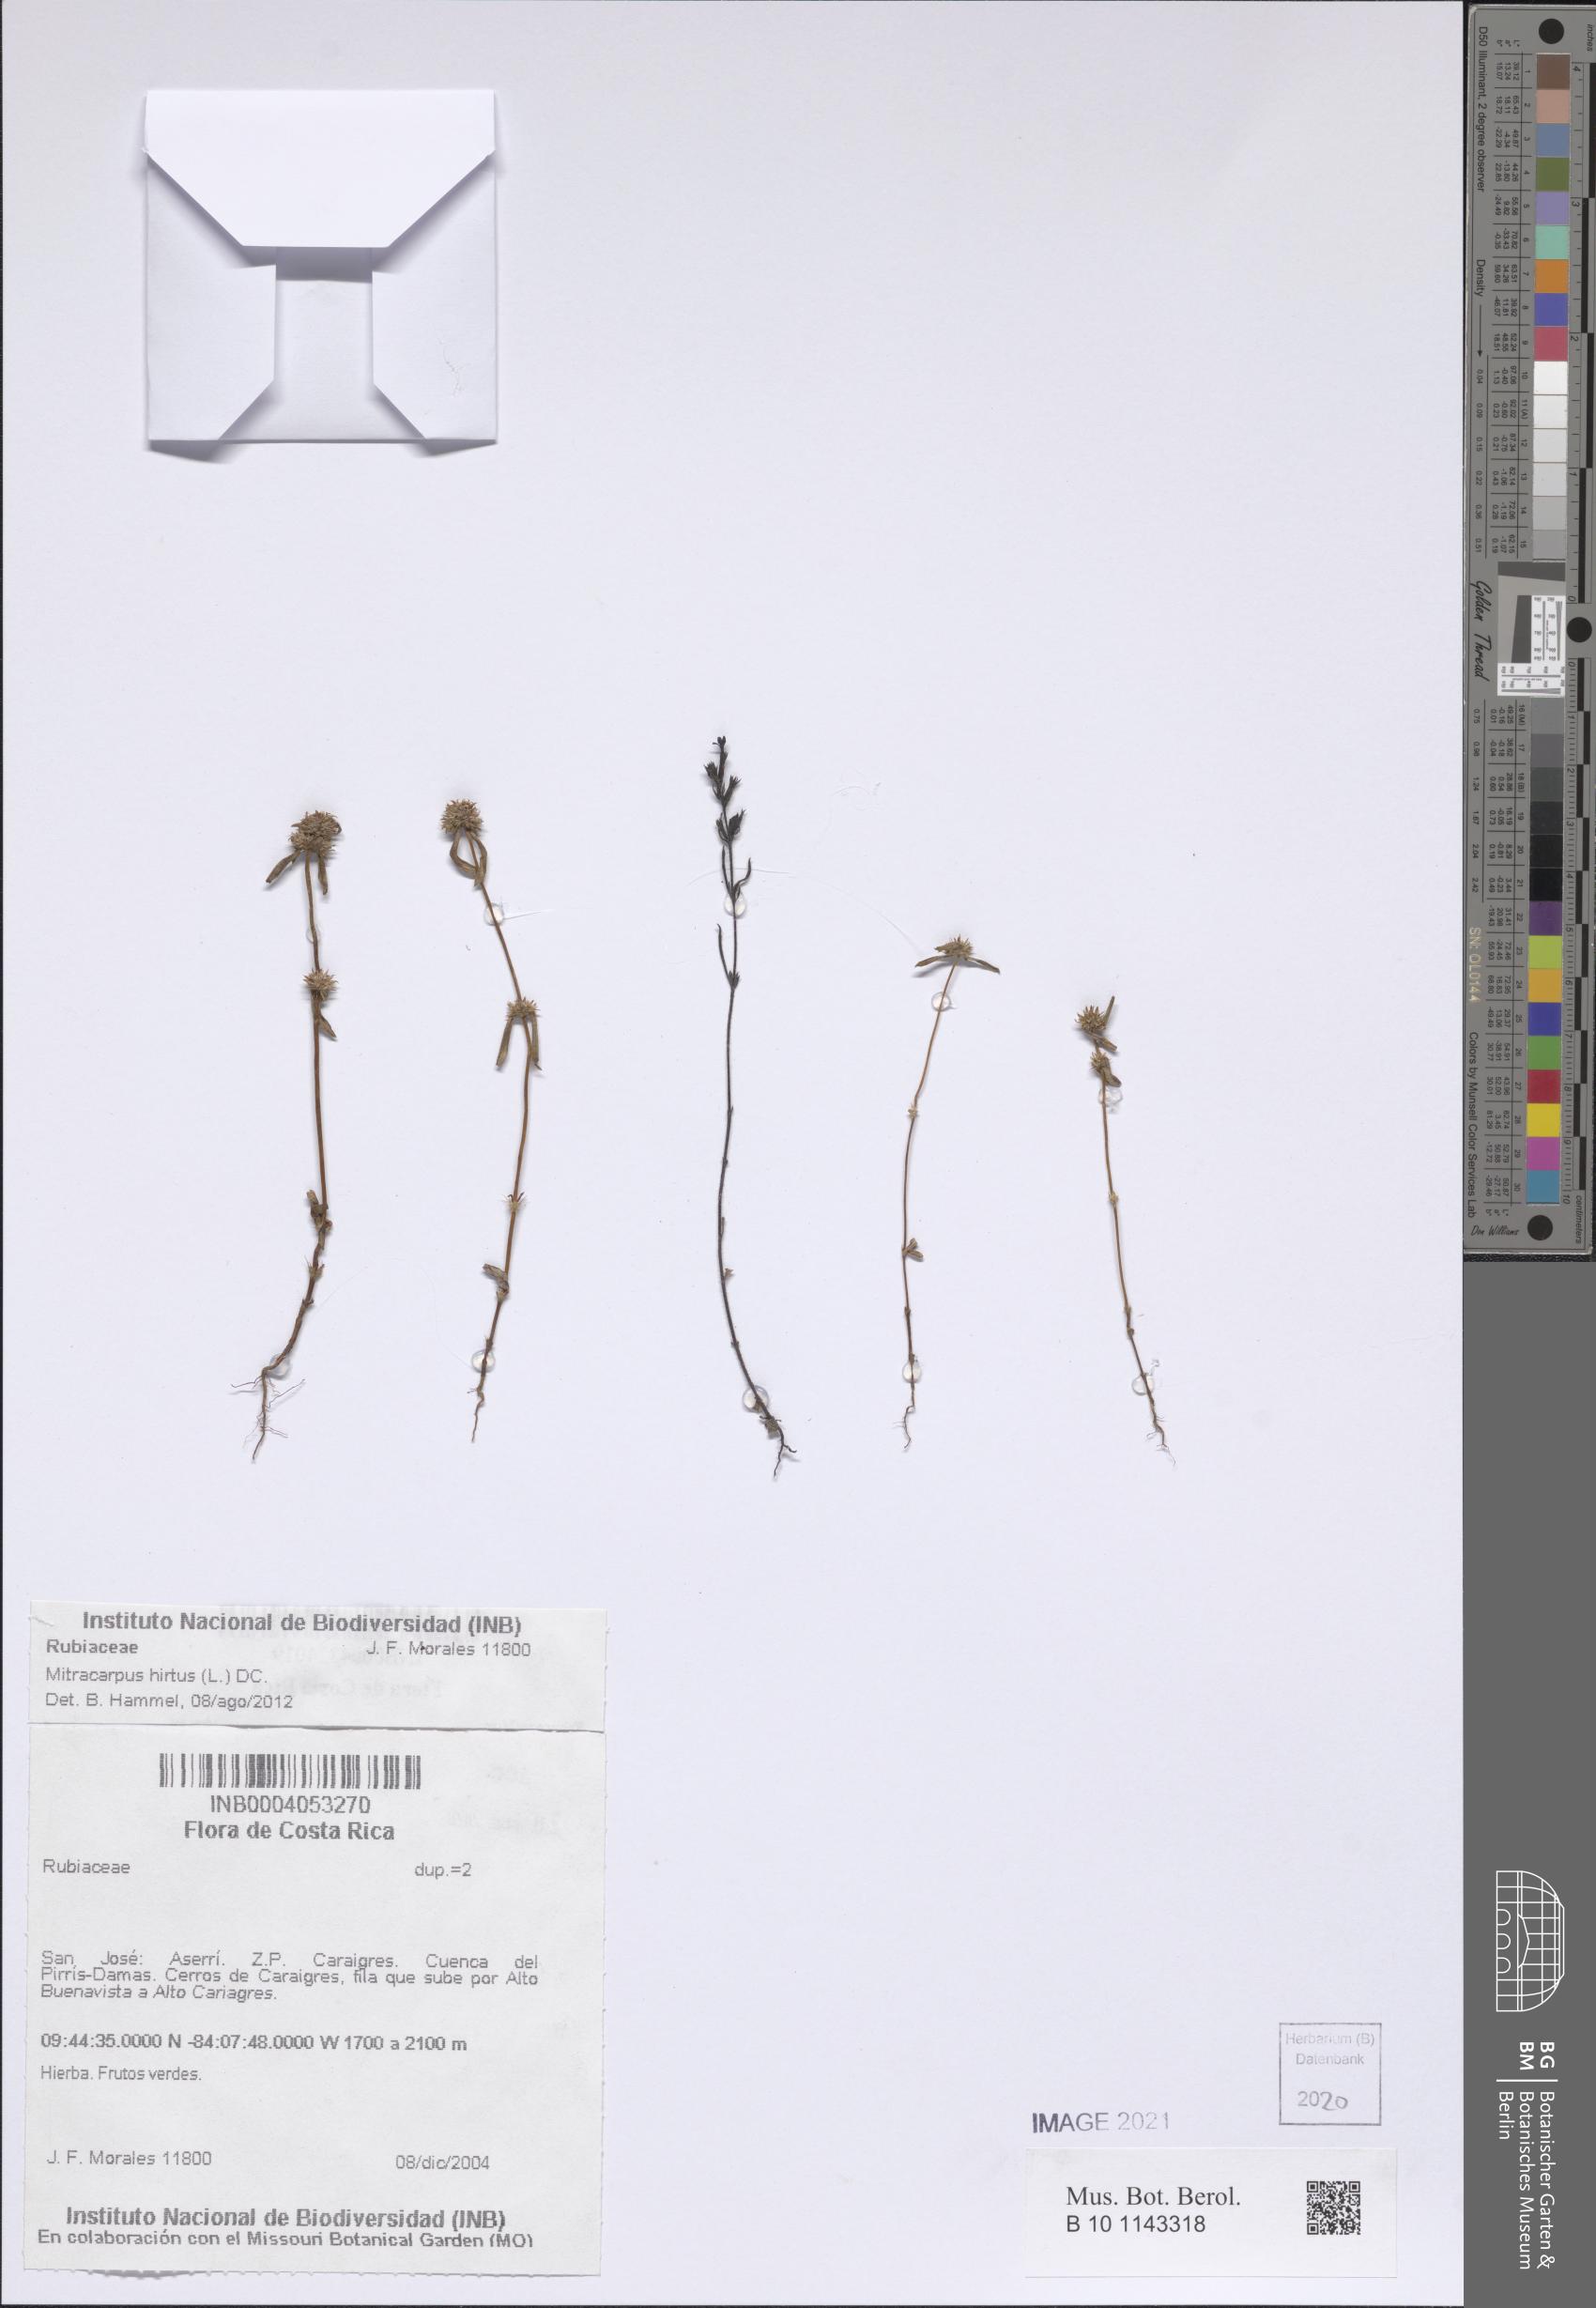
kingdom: Plantae
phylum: Tracheophyta
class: Magnoliopsida
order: Gentianales
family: Rubiaceae
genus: Mitracarpus
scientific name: Mitracarpus hirtus
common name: Tropical girdlepod
